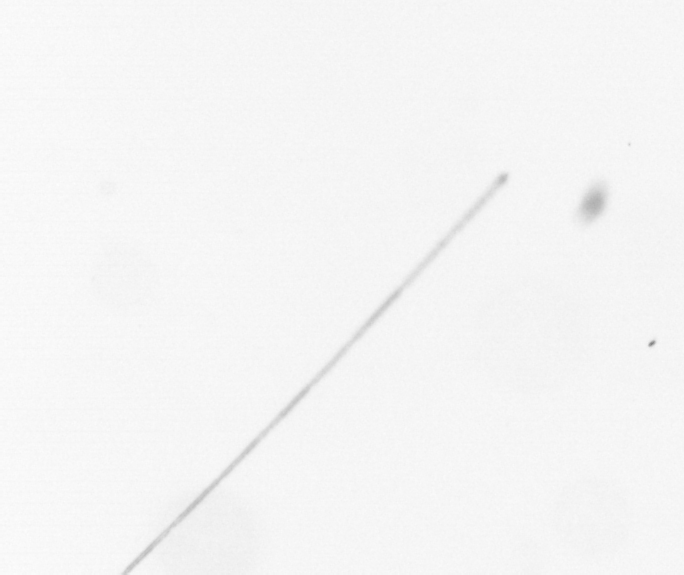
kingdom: Chromista
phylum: Ochrophyta
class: Bacillariophyceae
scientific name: Bacillariophyceae
